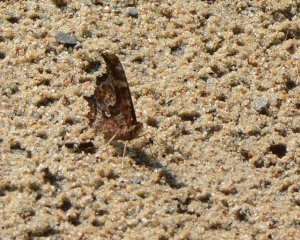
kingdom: Animalia
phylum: Arthropoda
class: Insecta
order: Lepidoptera
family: Nymphalidae
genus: Polygonia
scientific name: Polygonia comma
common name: Eastern Comma
